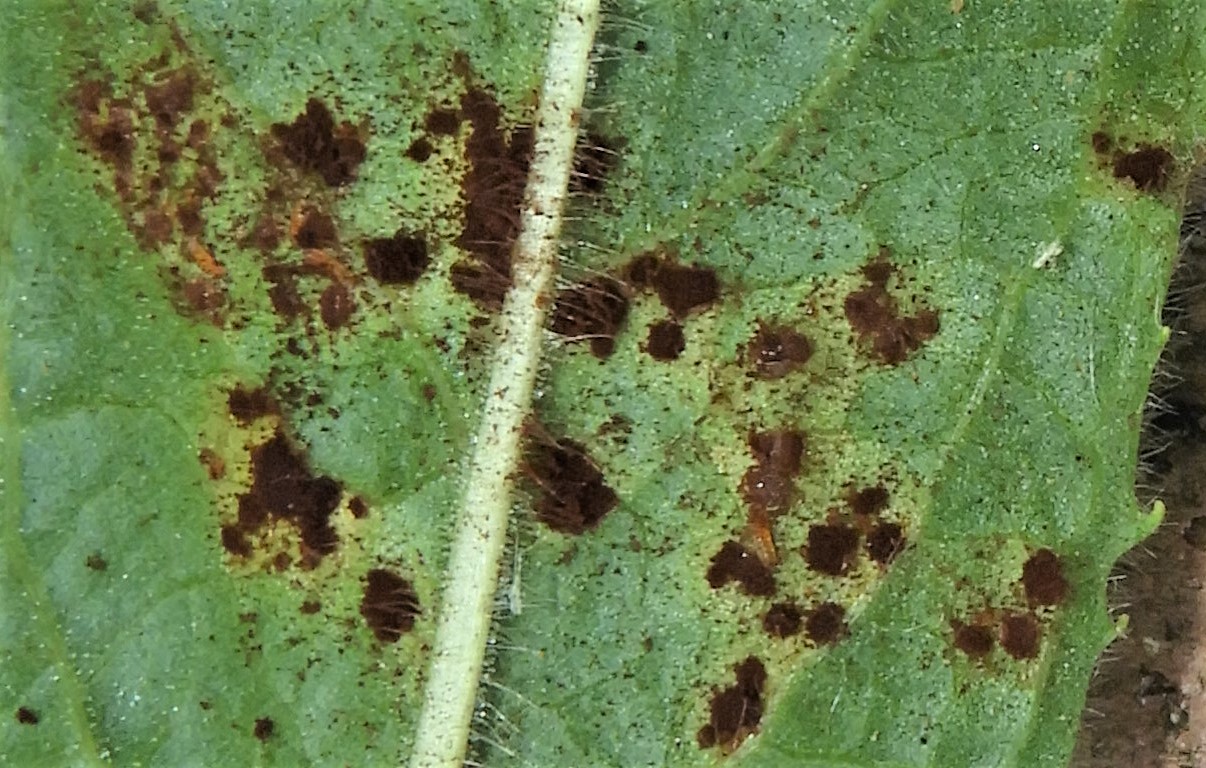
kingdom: Fungi
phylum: Basidiomycota
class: Pucciniomycetes
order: Pucciniales
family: Pucciniaceae
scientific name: Pucciniaceae
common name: rustsvampfamilien
